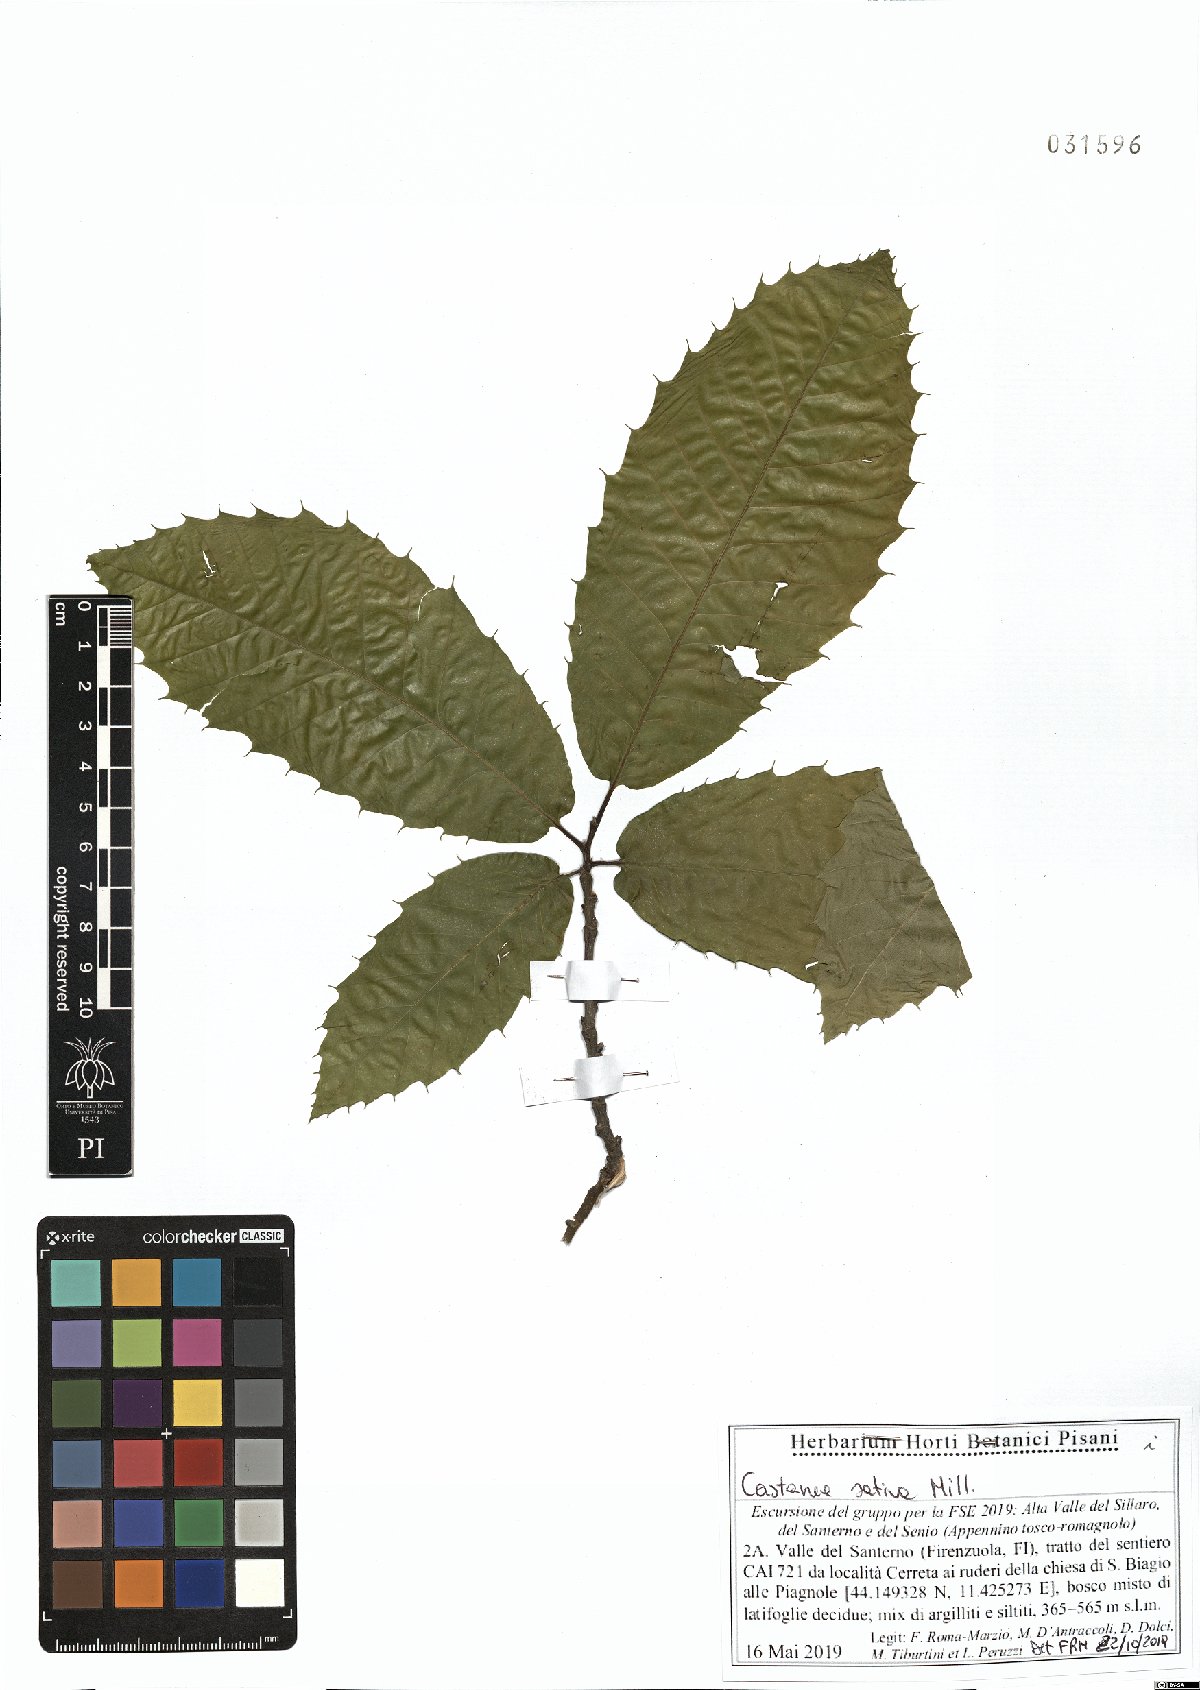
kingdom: Plantae
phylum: Tracheophyta
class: Magnoliopsida
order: Fagales
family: Fagaceae
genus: Castanea
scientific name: Castanea sativa
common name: Sweet chestnut
